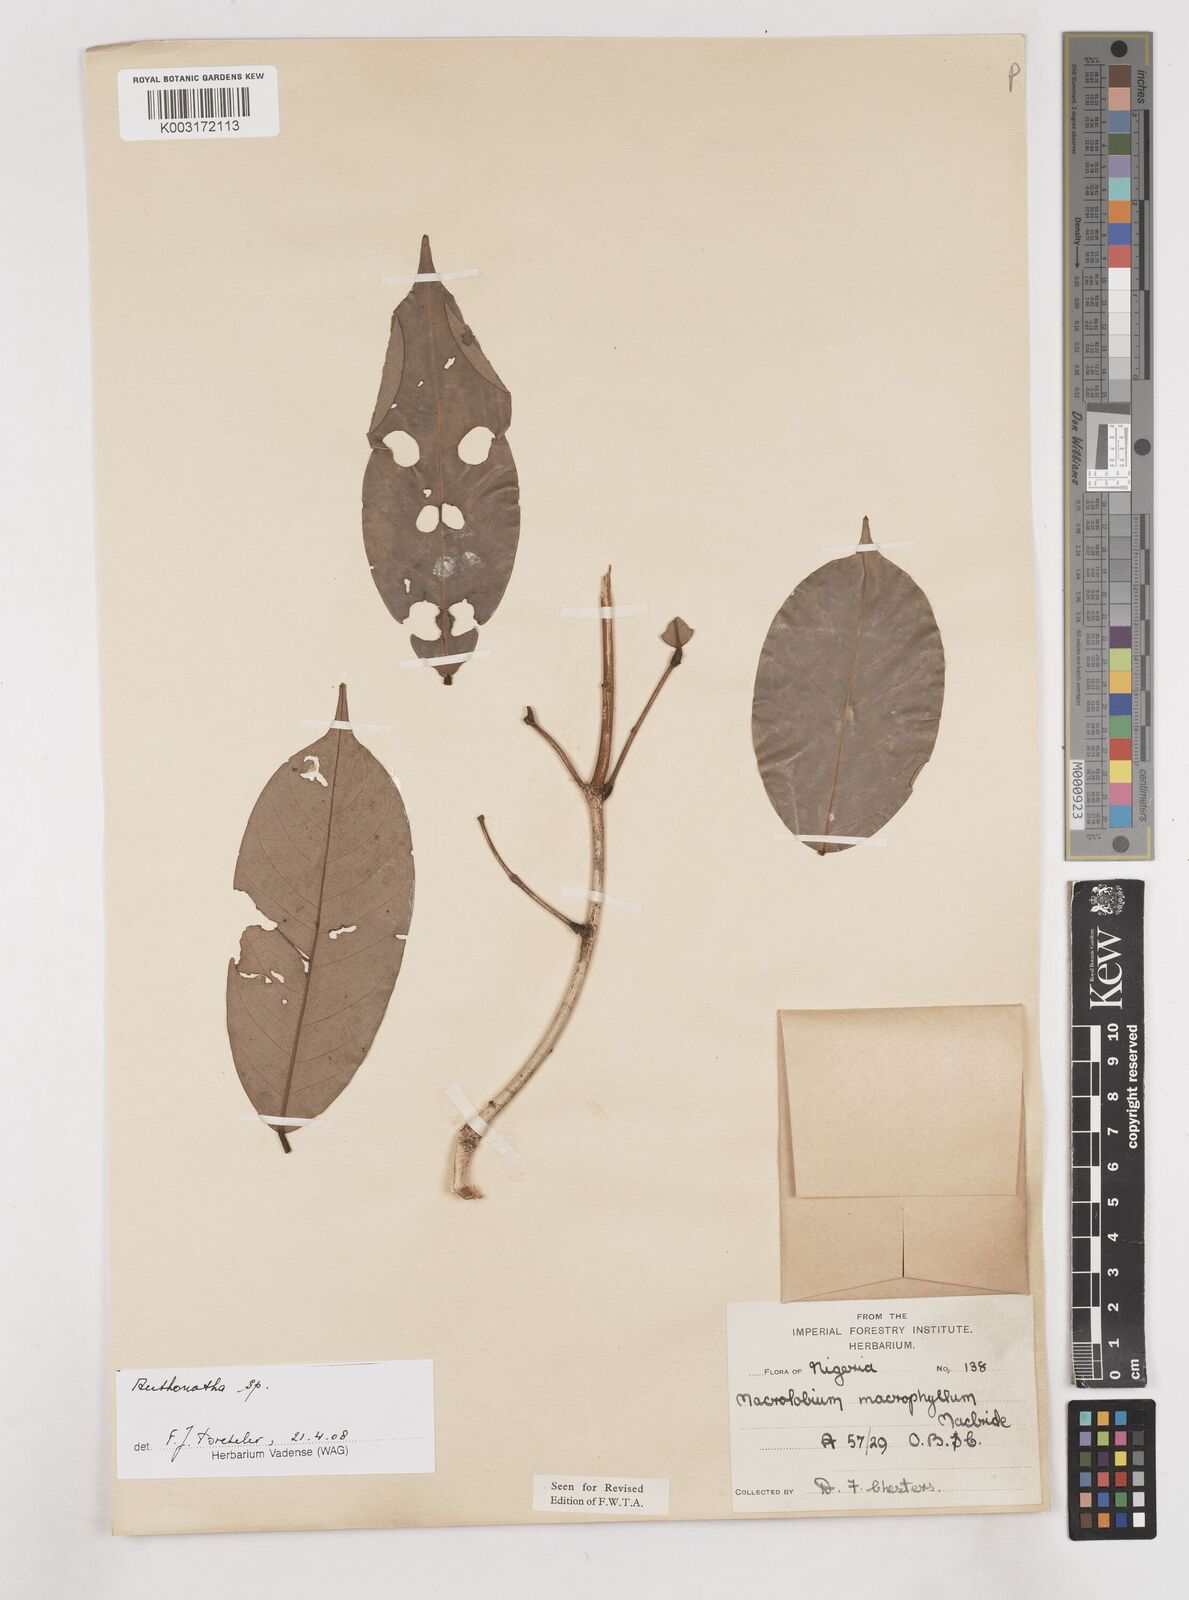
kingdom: Plantae
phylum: Tracheophyta
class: Magnoliopsida
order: Fabales
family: Fabaceae
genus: Anthonotha
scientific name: Anthonotha
